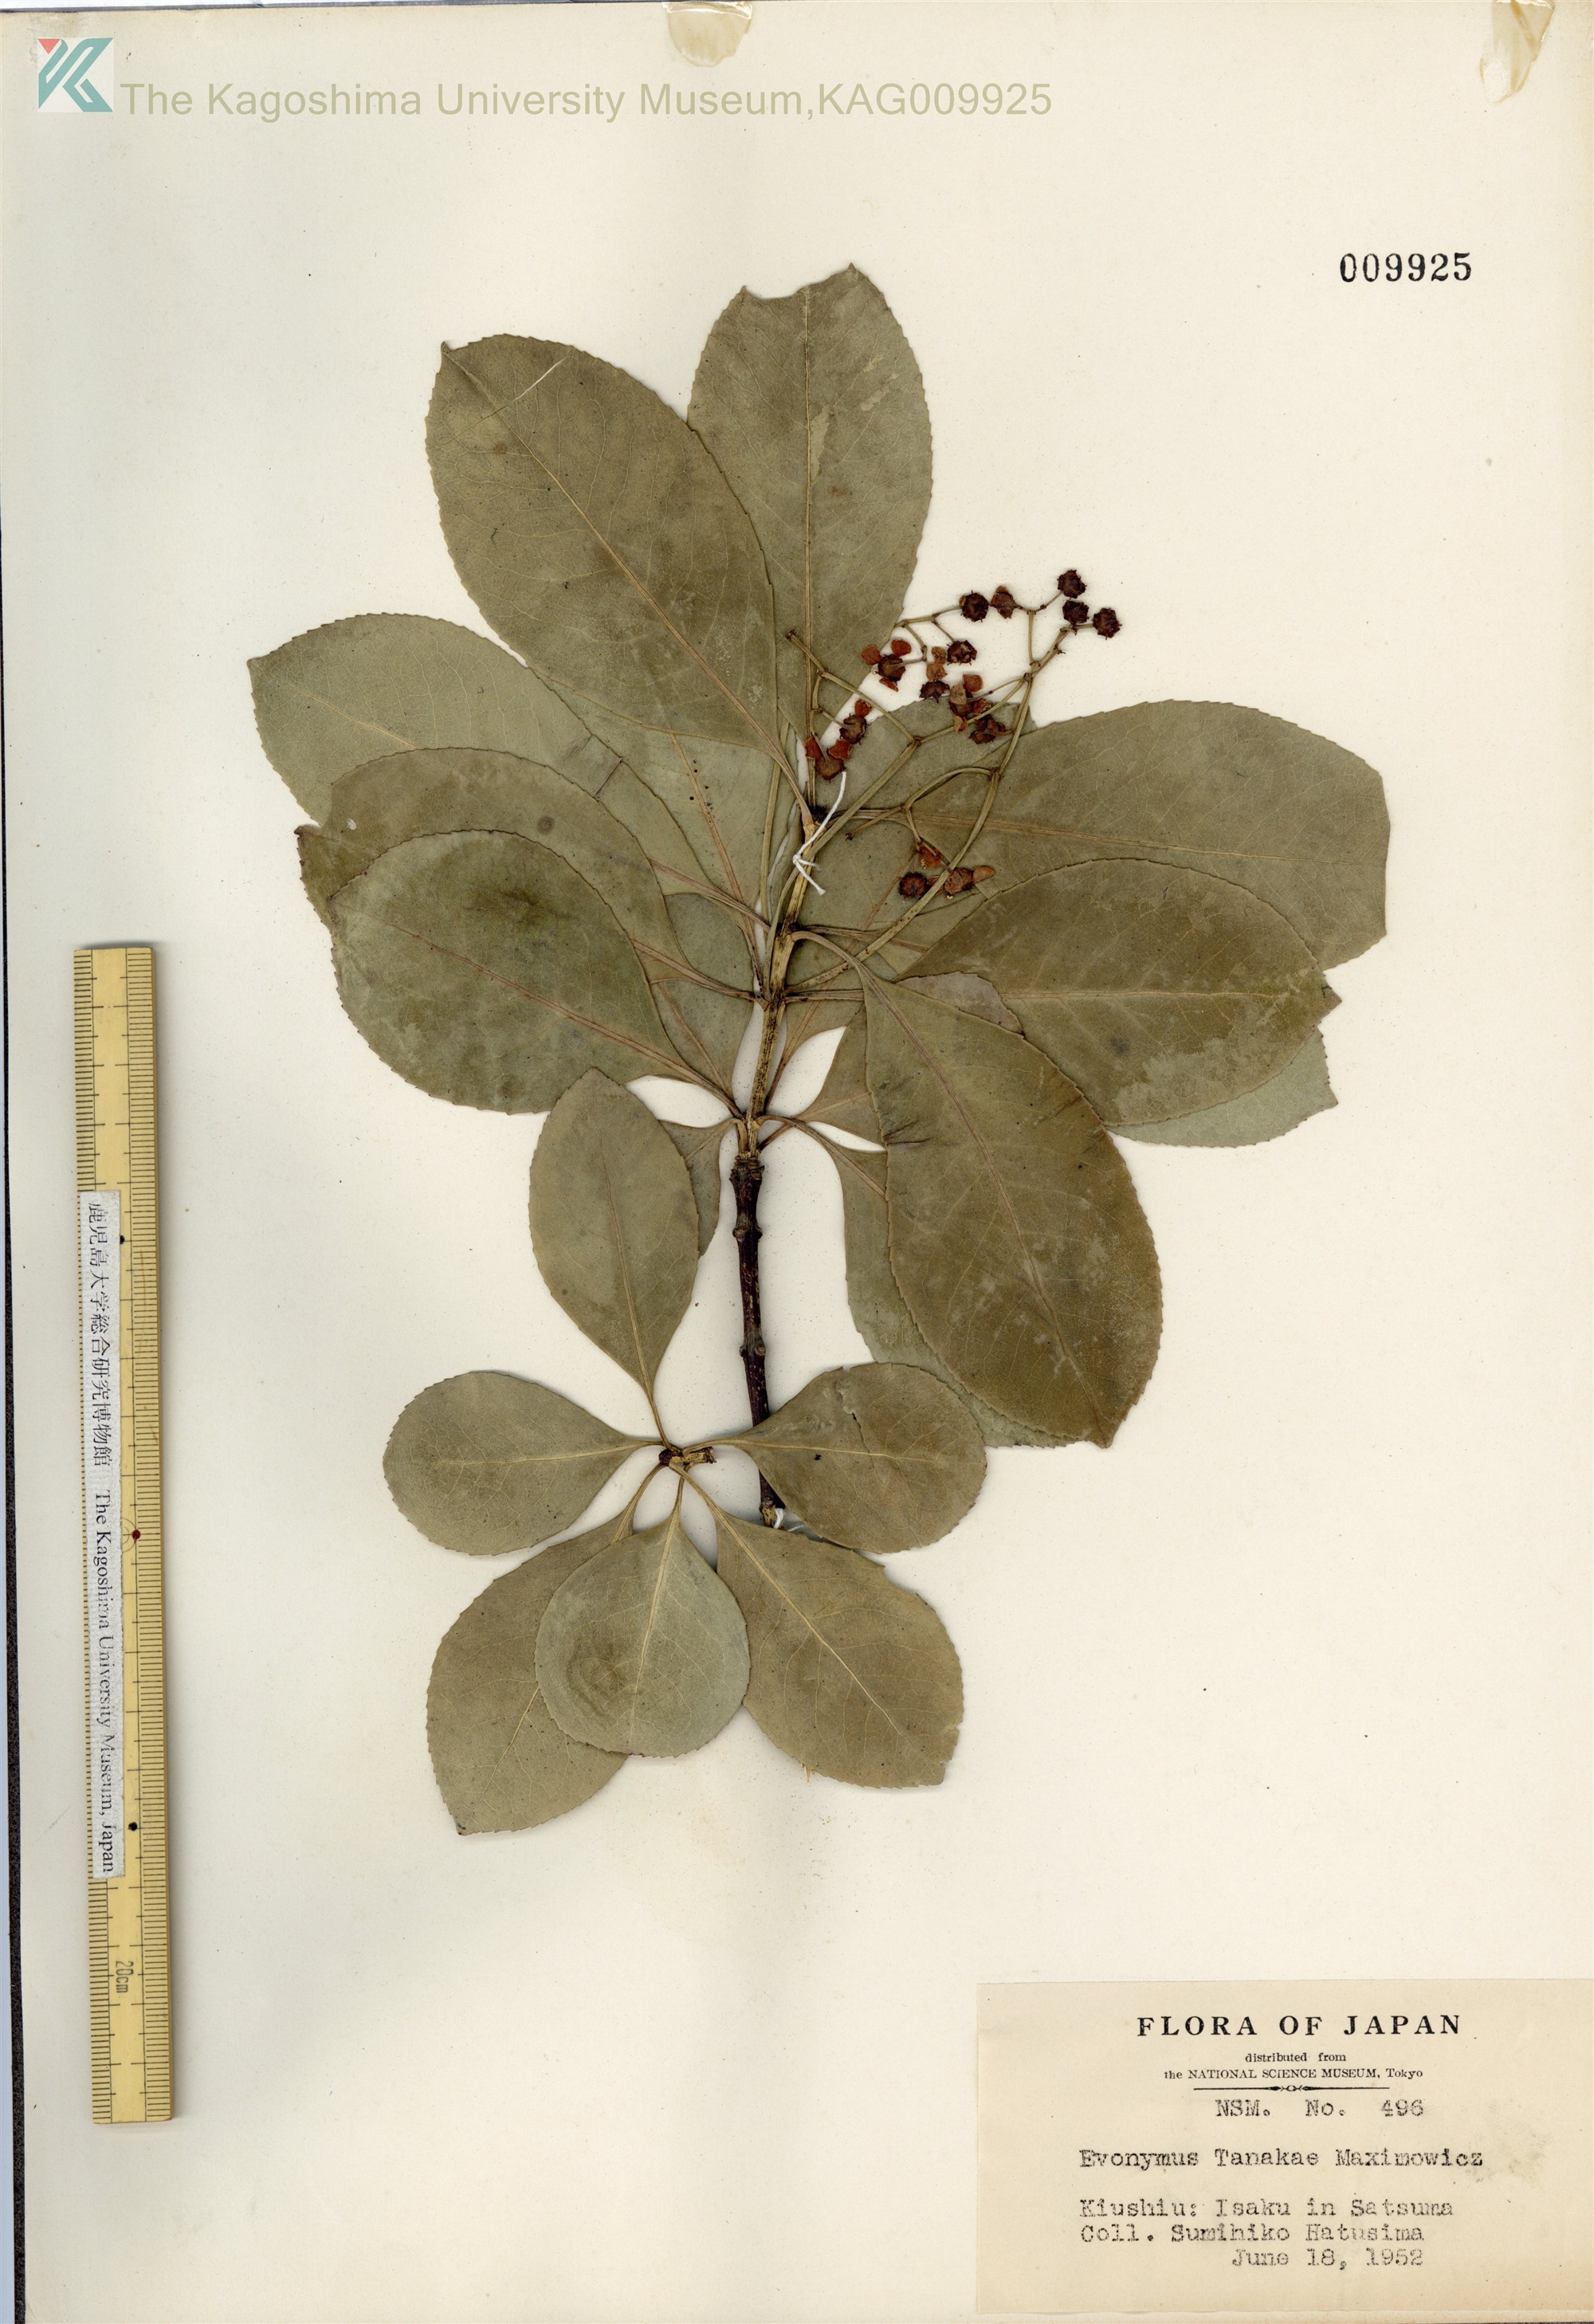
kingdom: Plantae
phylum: Tracheophyta
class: Magnoliopsida
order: Celastrales
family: Celastraceae
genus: Euonymus
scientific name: Euonymus carnosus
